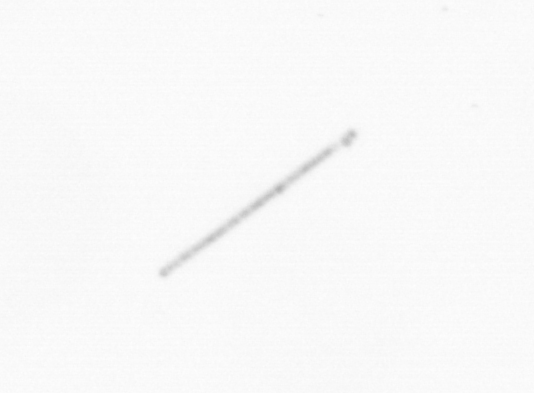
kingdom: Chromista
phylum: Ochrophyta
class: Bacillariophyceae
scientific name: Bacillariophyceae
